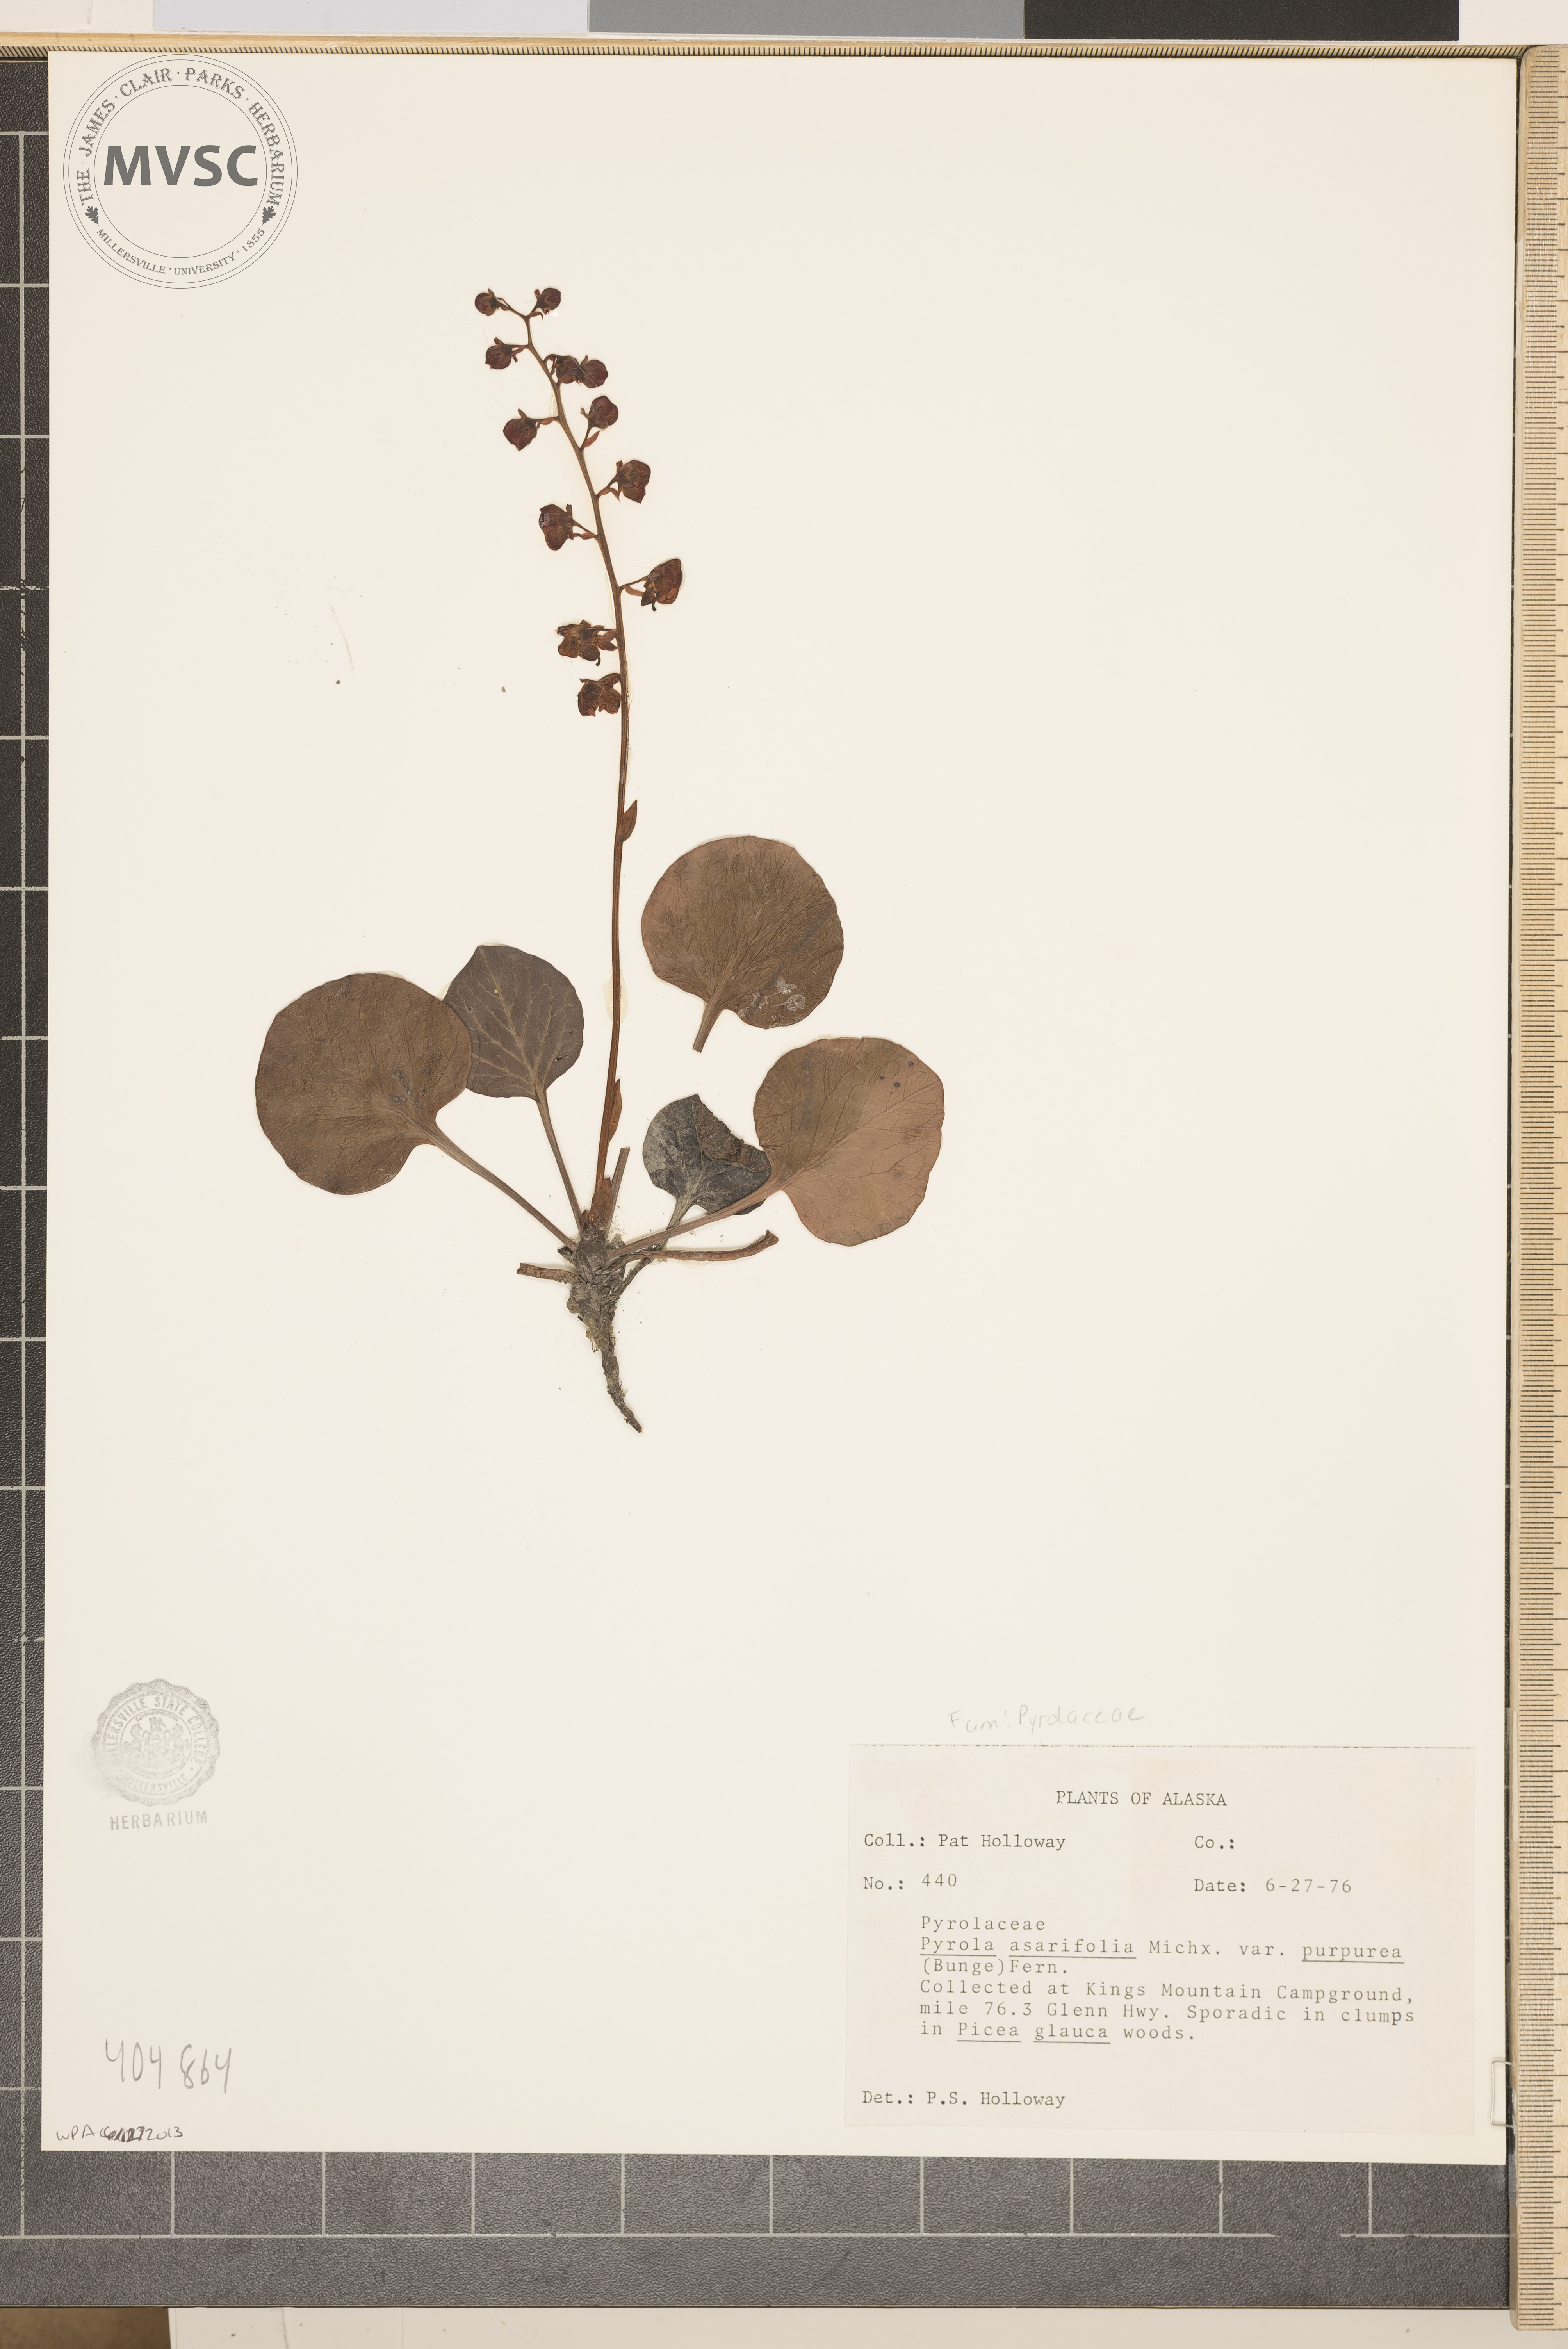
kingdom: Plantae
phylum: Tracheophyta
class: Magnoliopsida
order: Ericales
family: Ericaceae
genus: Pyrola
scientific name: Pyrola asarifolia
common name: Bog wintergreen
